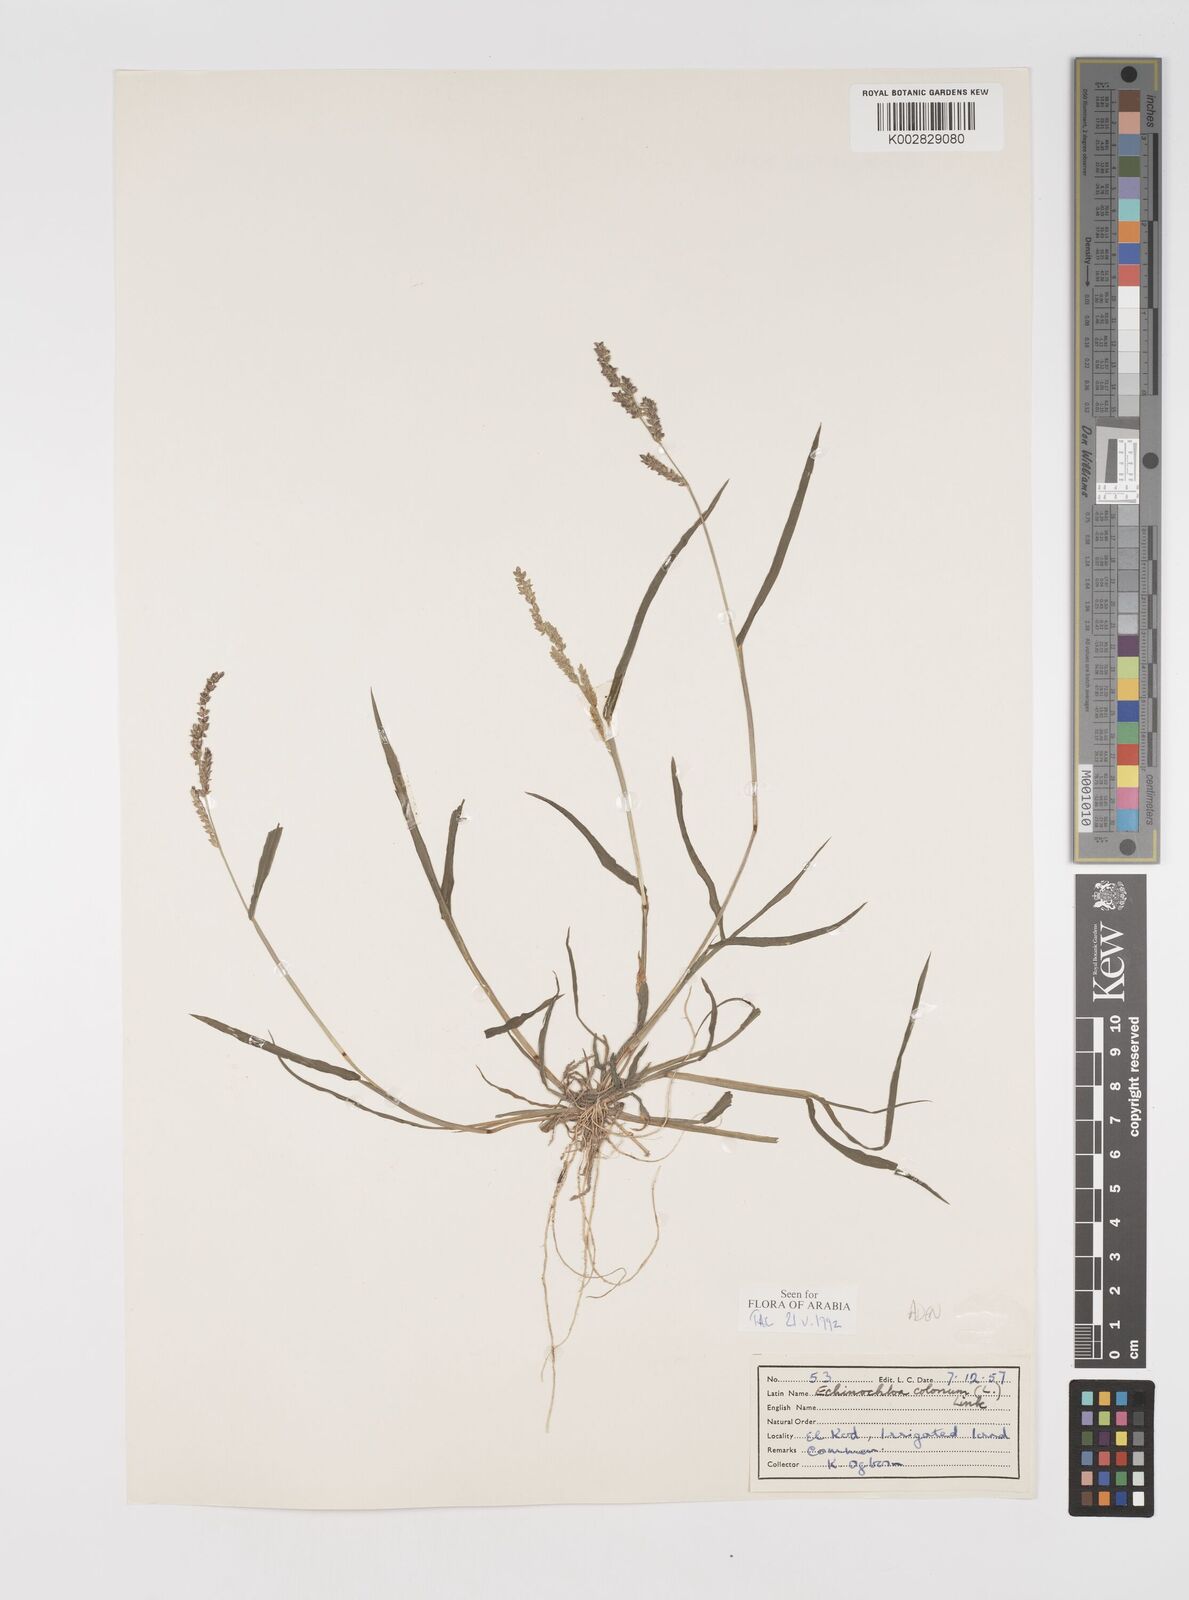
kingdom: Plantae
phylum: Tracheophyta
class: Liliopsida
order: Poales
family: Poaceae
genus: Echinochloa
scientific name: Echinochloa colonum
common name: Jungle rice
